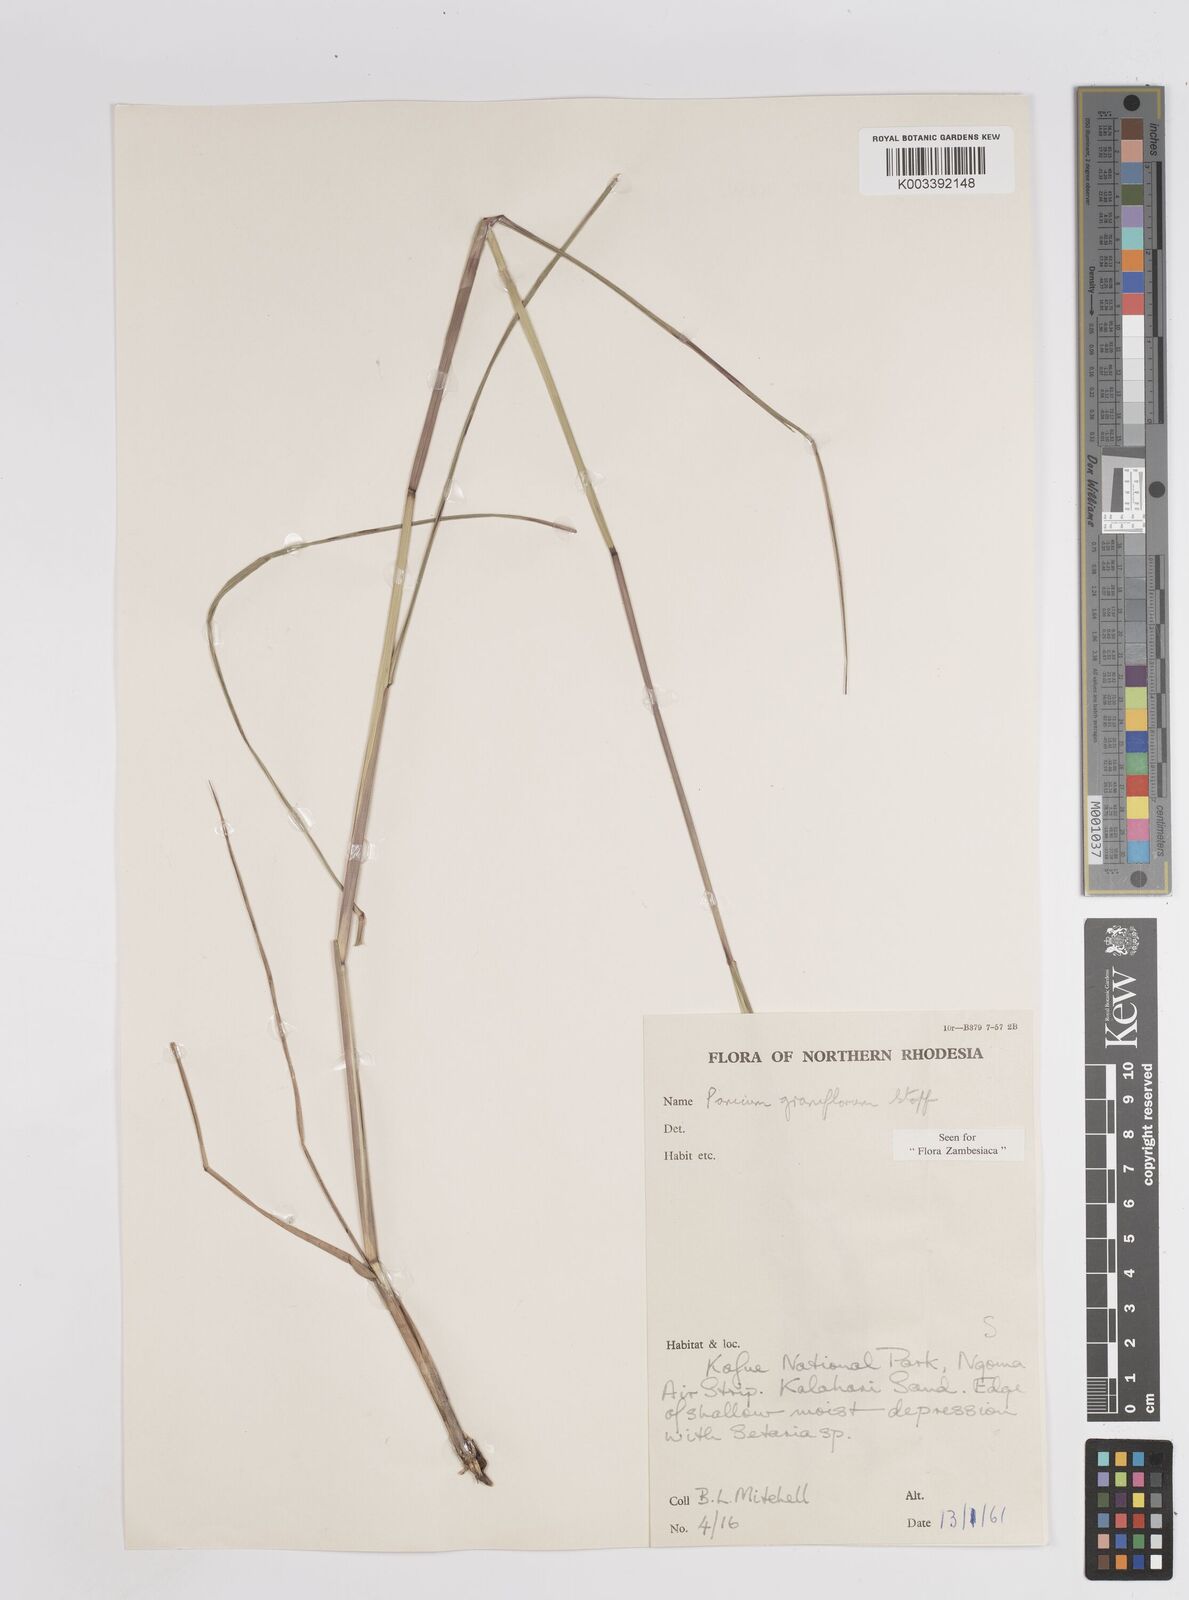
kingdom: Plantae
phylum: Tracheophyta
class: Liliopsida
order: Poales
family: Poaceae
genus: Panicum
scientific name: Panicum graniflorum
